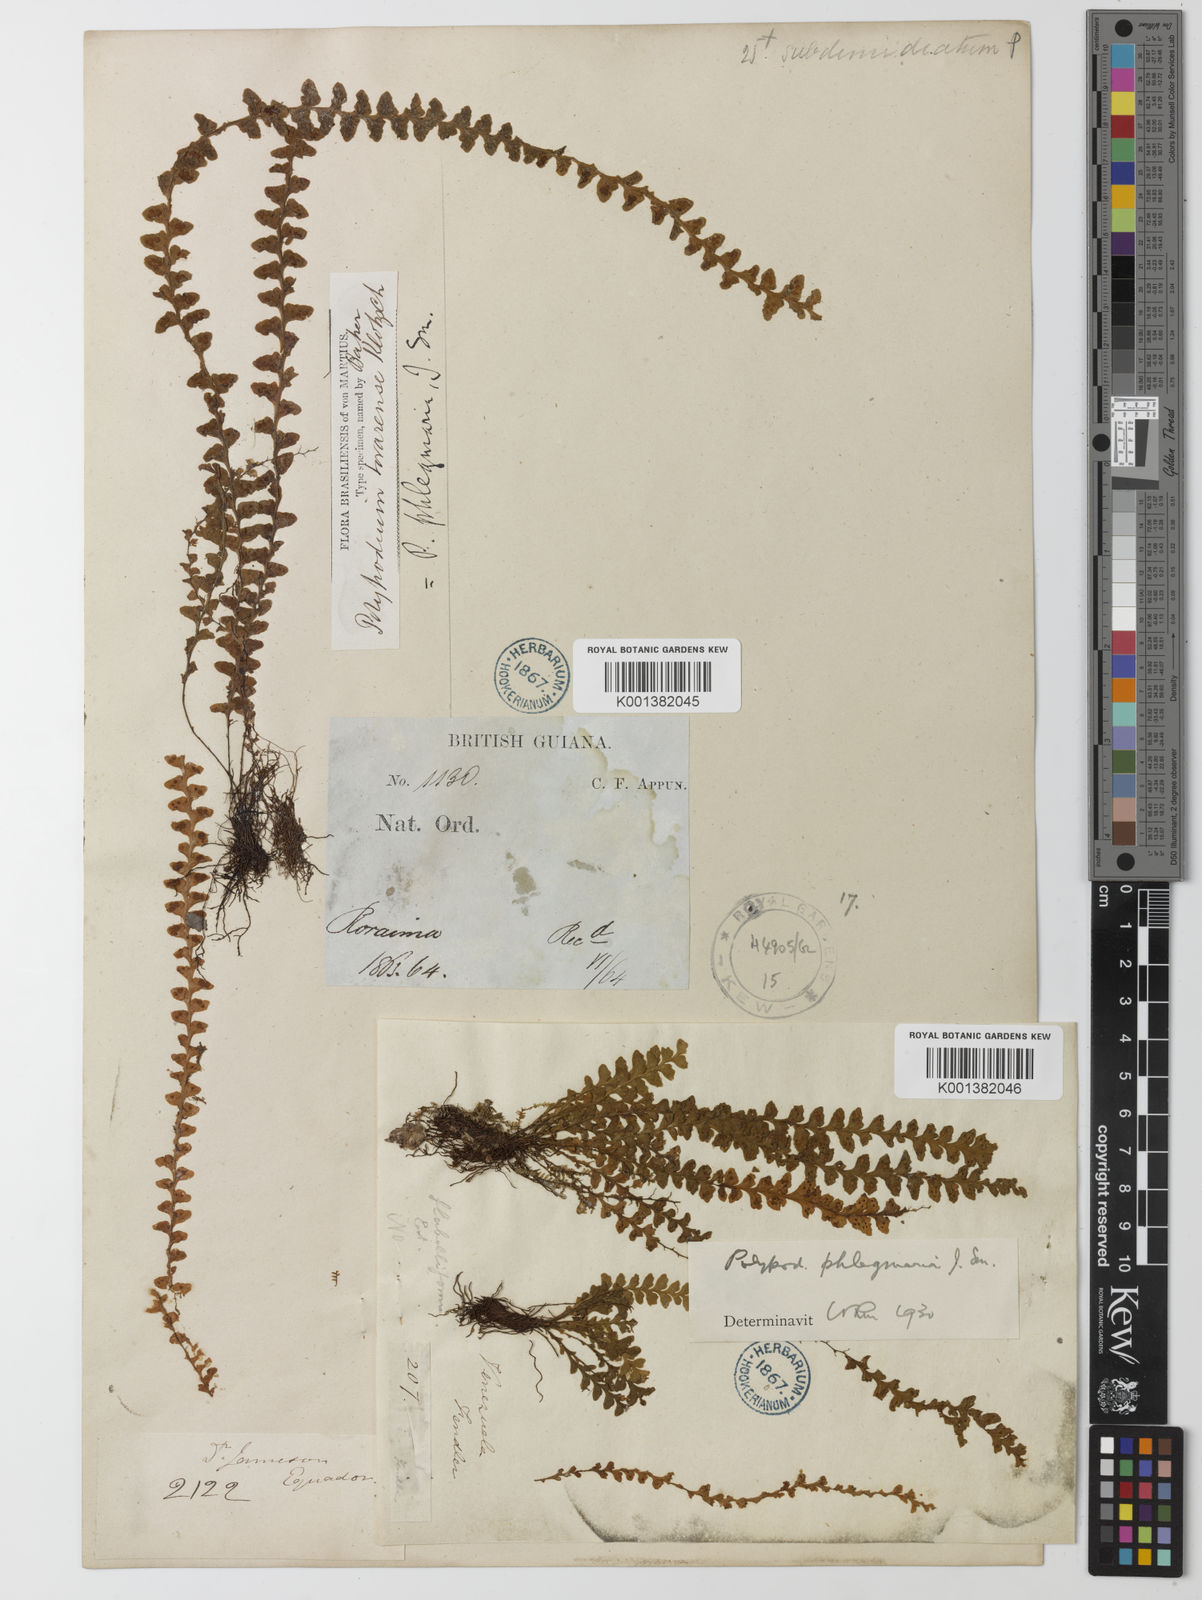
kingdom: Plantae
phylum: Tracheophyta
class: Polypodiopsida
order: Polypodiales
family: Polypodiaceae
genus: Lellingeria
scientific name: Lellingeria phlegmaria
